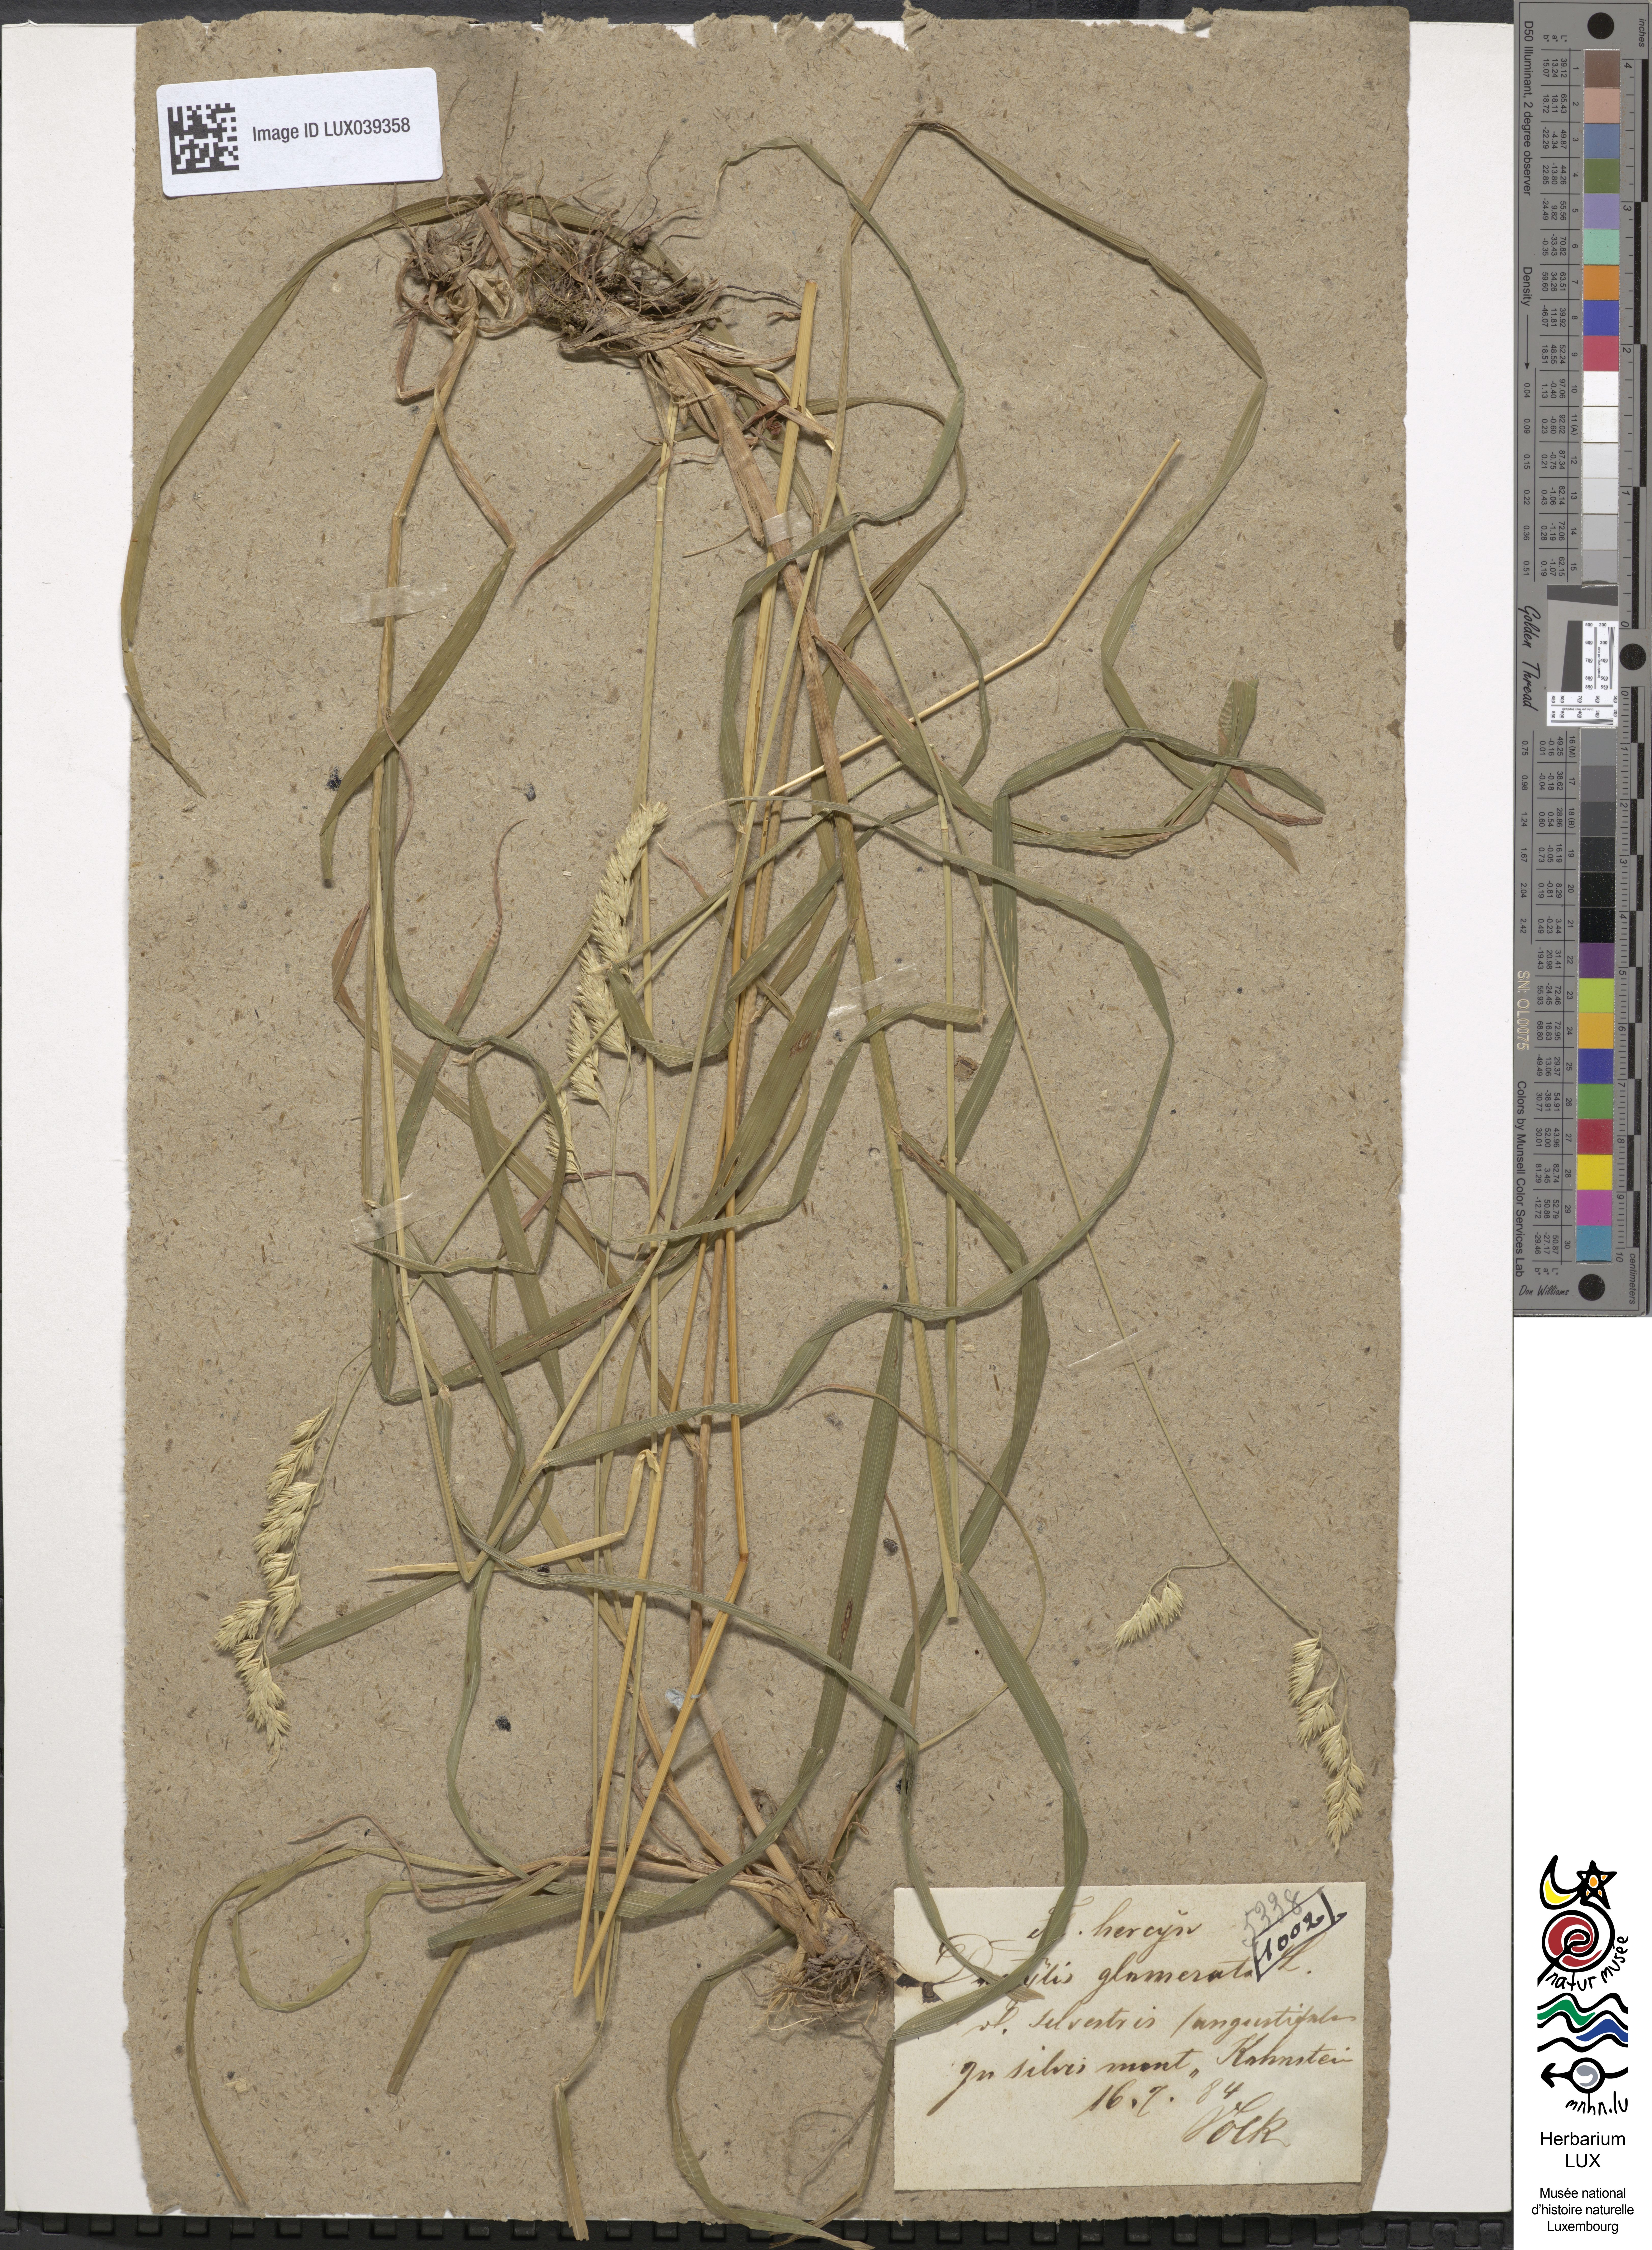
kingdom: Plantae
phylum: Tracheophyta
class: Liliopsida
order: Poales
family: Poaceae
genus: Dactylis
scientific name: Dactylis glomerata
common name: Orchardgrass
